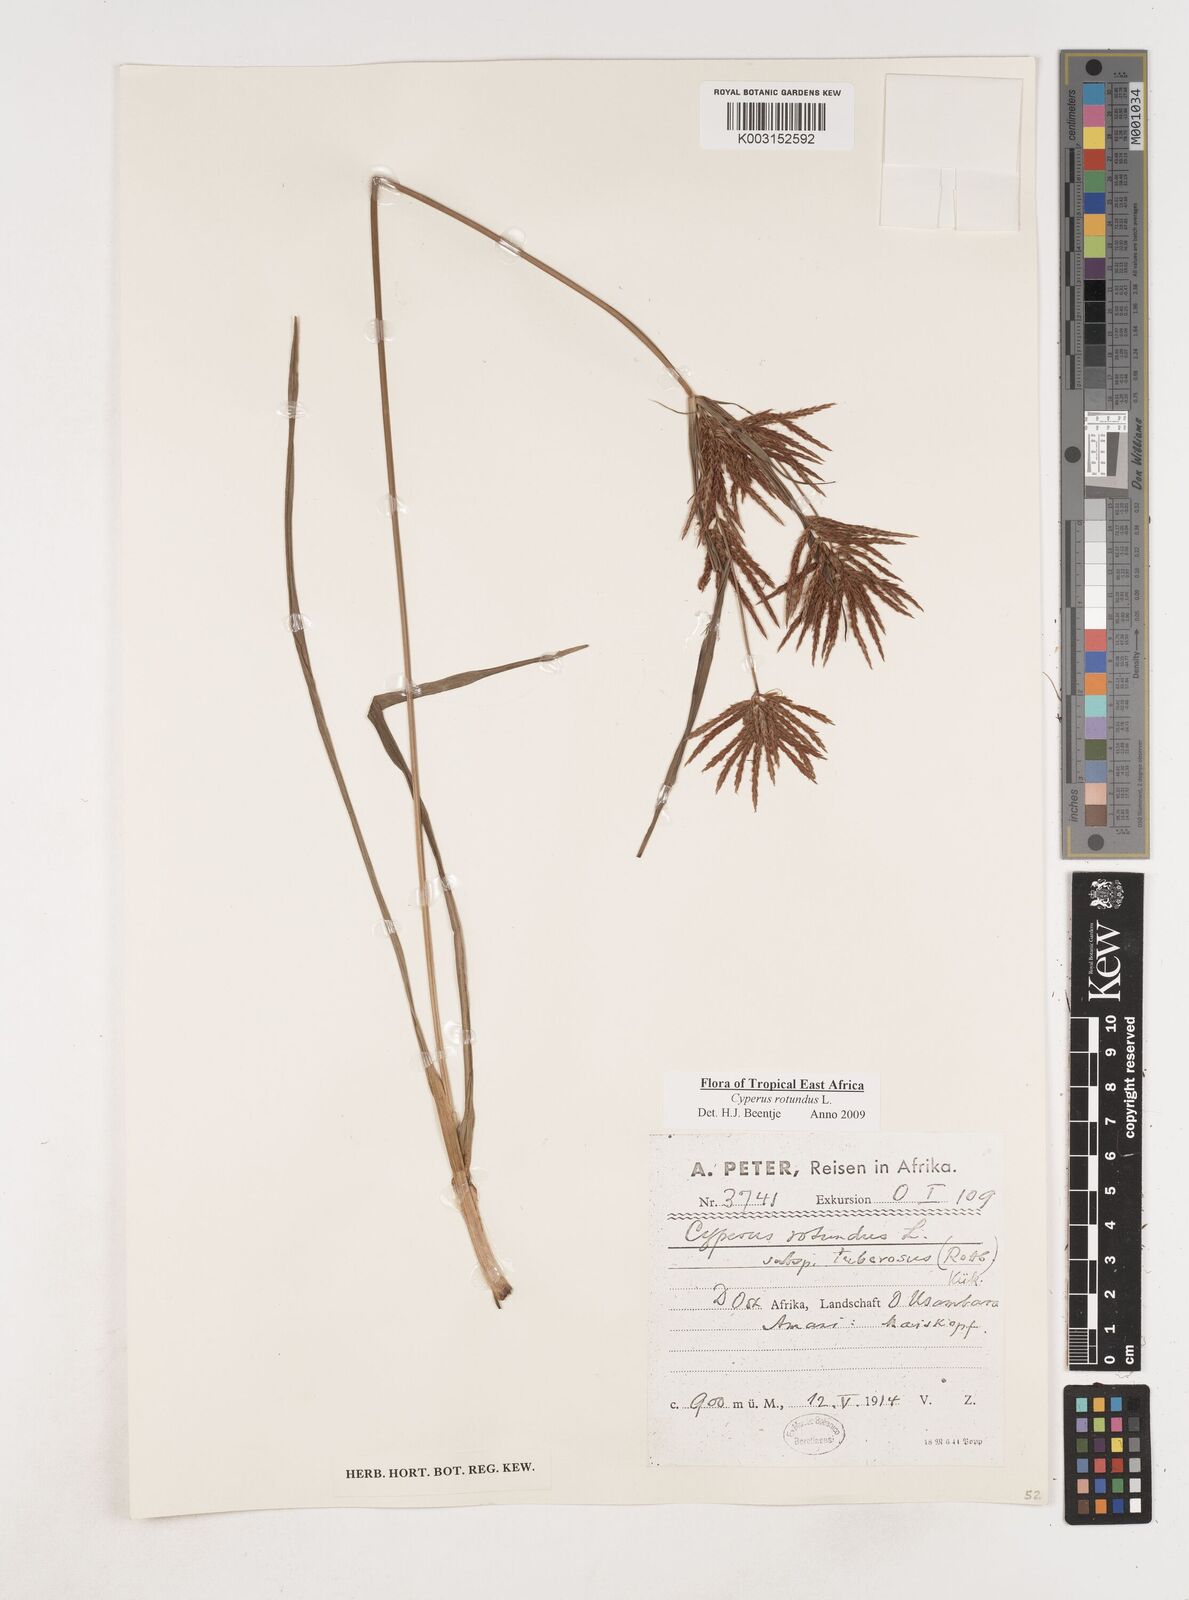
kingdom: Plantae
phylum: Tracheophyta
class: Liliopsida
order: Poales
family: Cyperaceae
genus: Cyperus
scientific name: Cyperus rotundus
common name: Nutgrass
